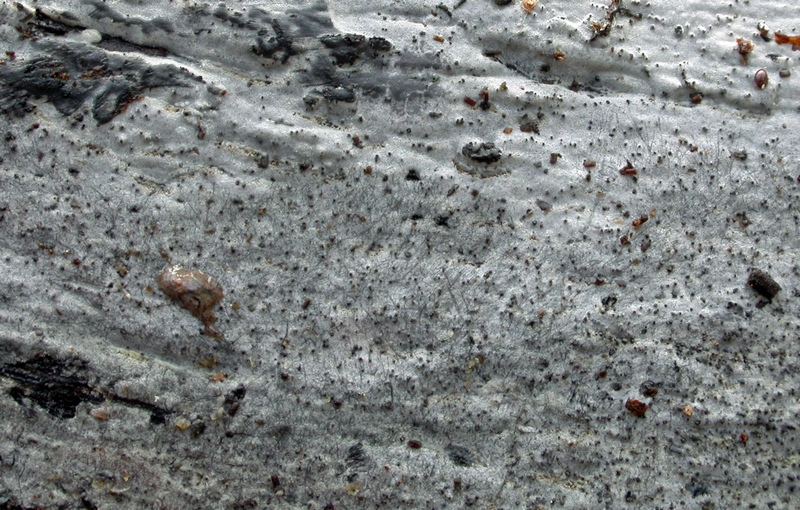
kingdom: Fungi
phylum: Basidiomycota
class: Tremellomycetes
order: Tremellales
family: Exidiaceae
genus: Exidiopsis
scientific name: Exidiopsis effusa
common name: smuk bævrehinde
